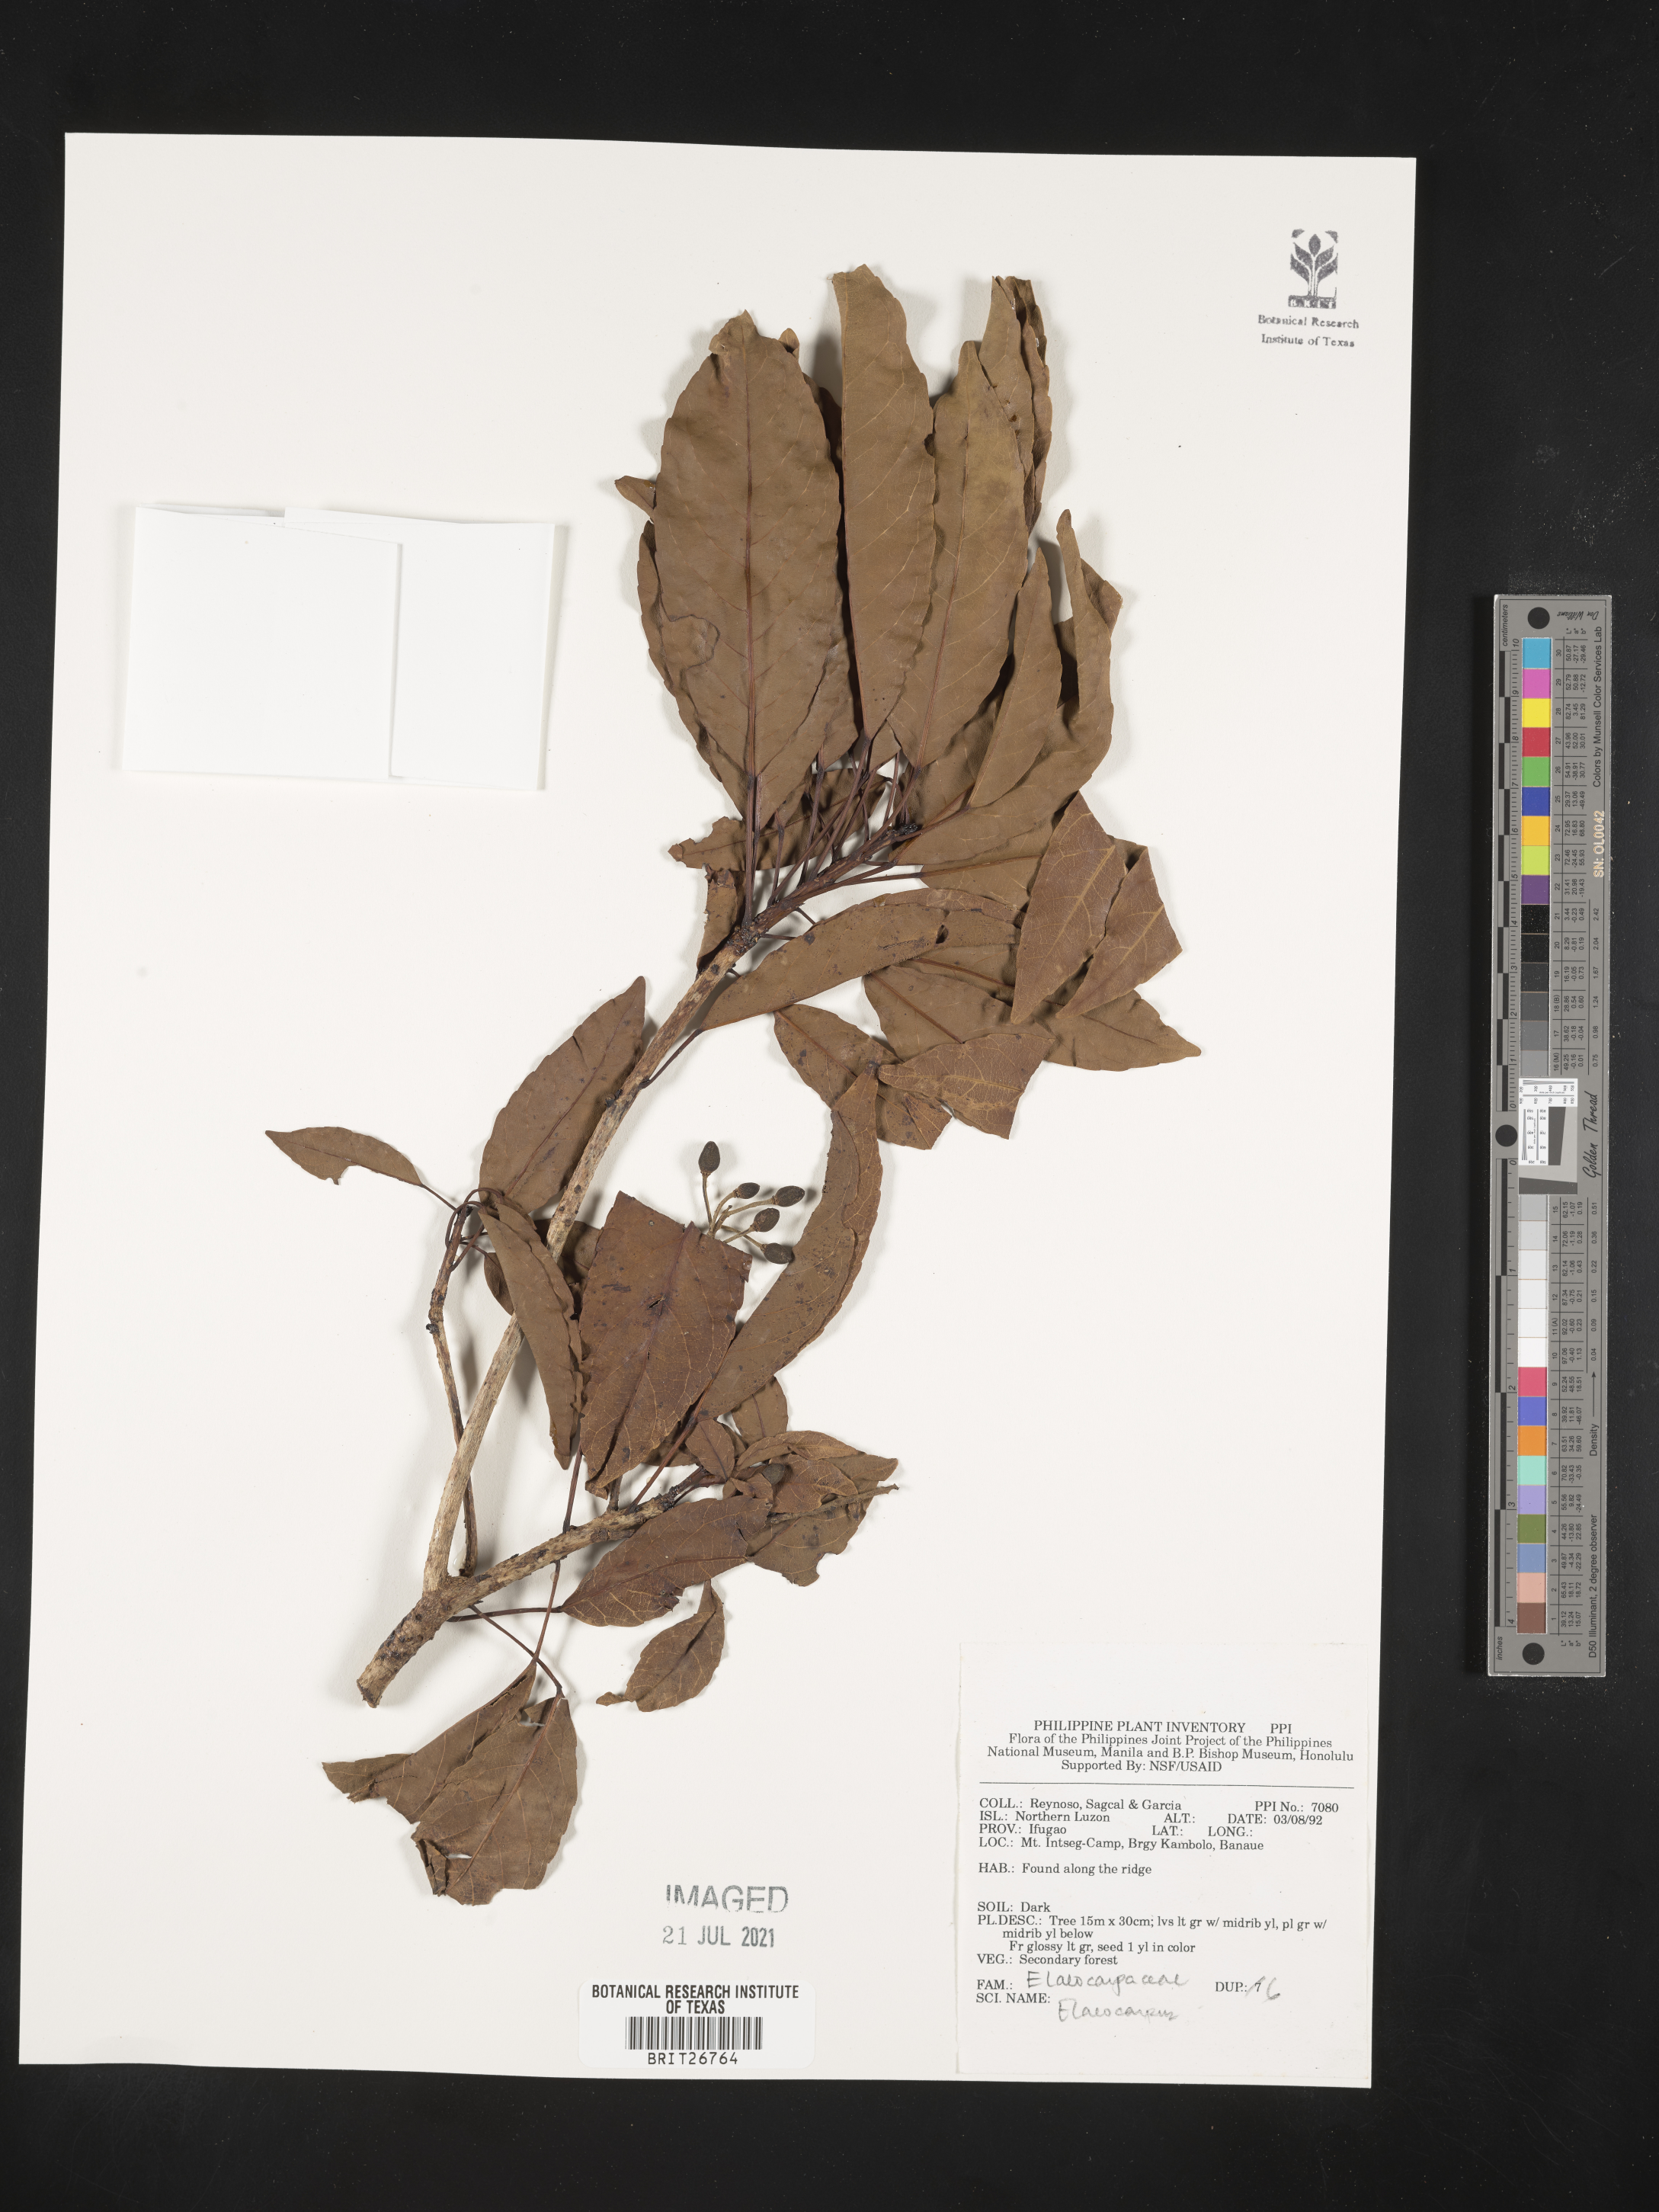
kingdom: Plantae
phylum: Tracheophyta
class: Magnoliopsida
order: Oxalidales
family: Elaeocarpaceae
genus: Elaeocarpus
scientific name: Elaeocarpus
